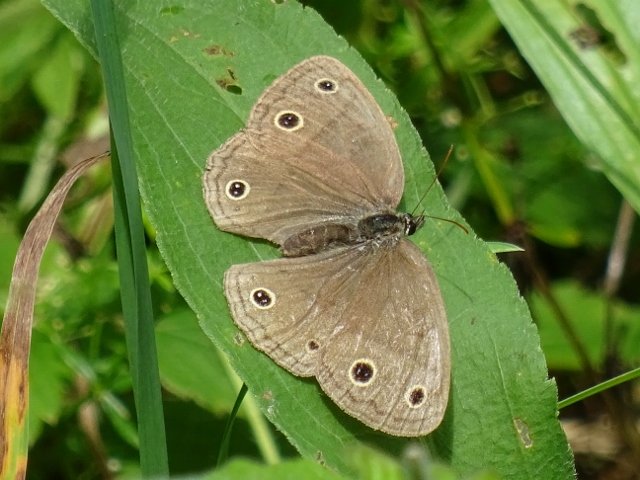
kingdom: Animalia
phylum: Arthropoda
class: Insecta
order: Lepidoptera
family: Nymphalidae
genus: Euptychia
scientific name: Euptychia cymela
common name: Little Wood Satyr
